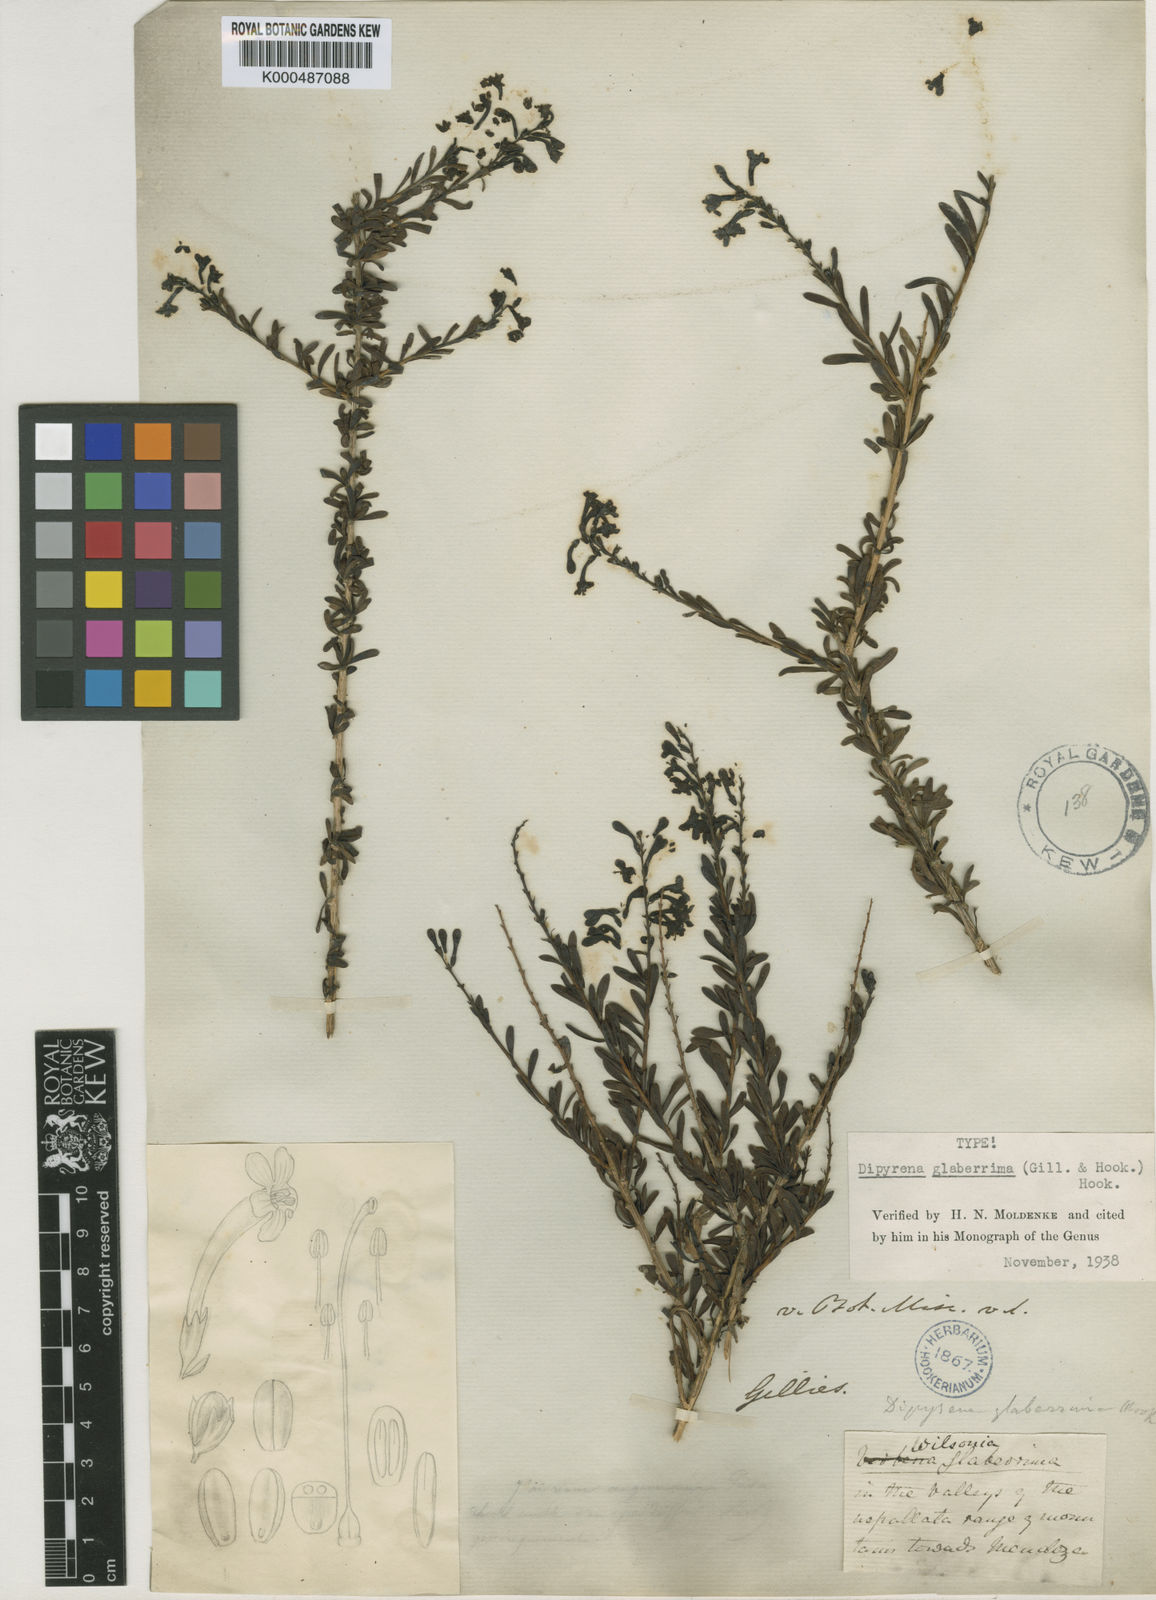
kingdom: Plantae
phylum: Tracheophyta
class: Magnoliopsida
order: Lamiales
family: Verbenaceae
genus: Dipyrena
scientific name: Dipyrena glaberrima
